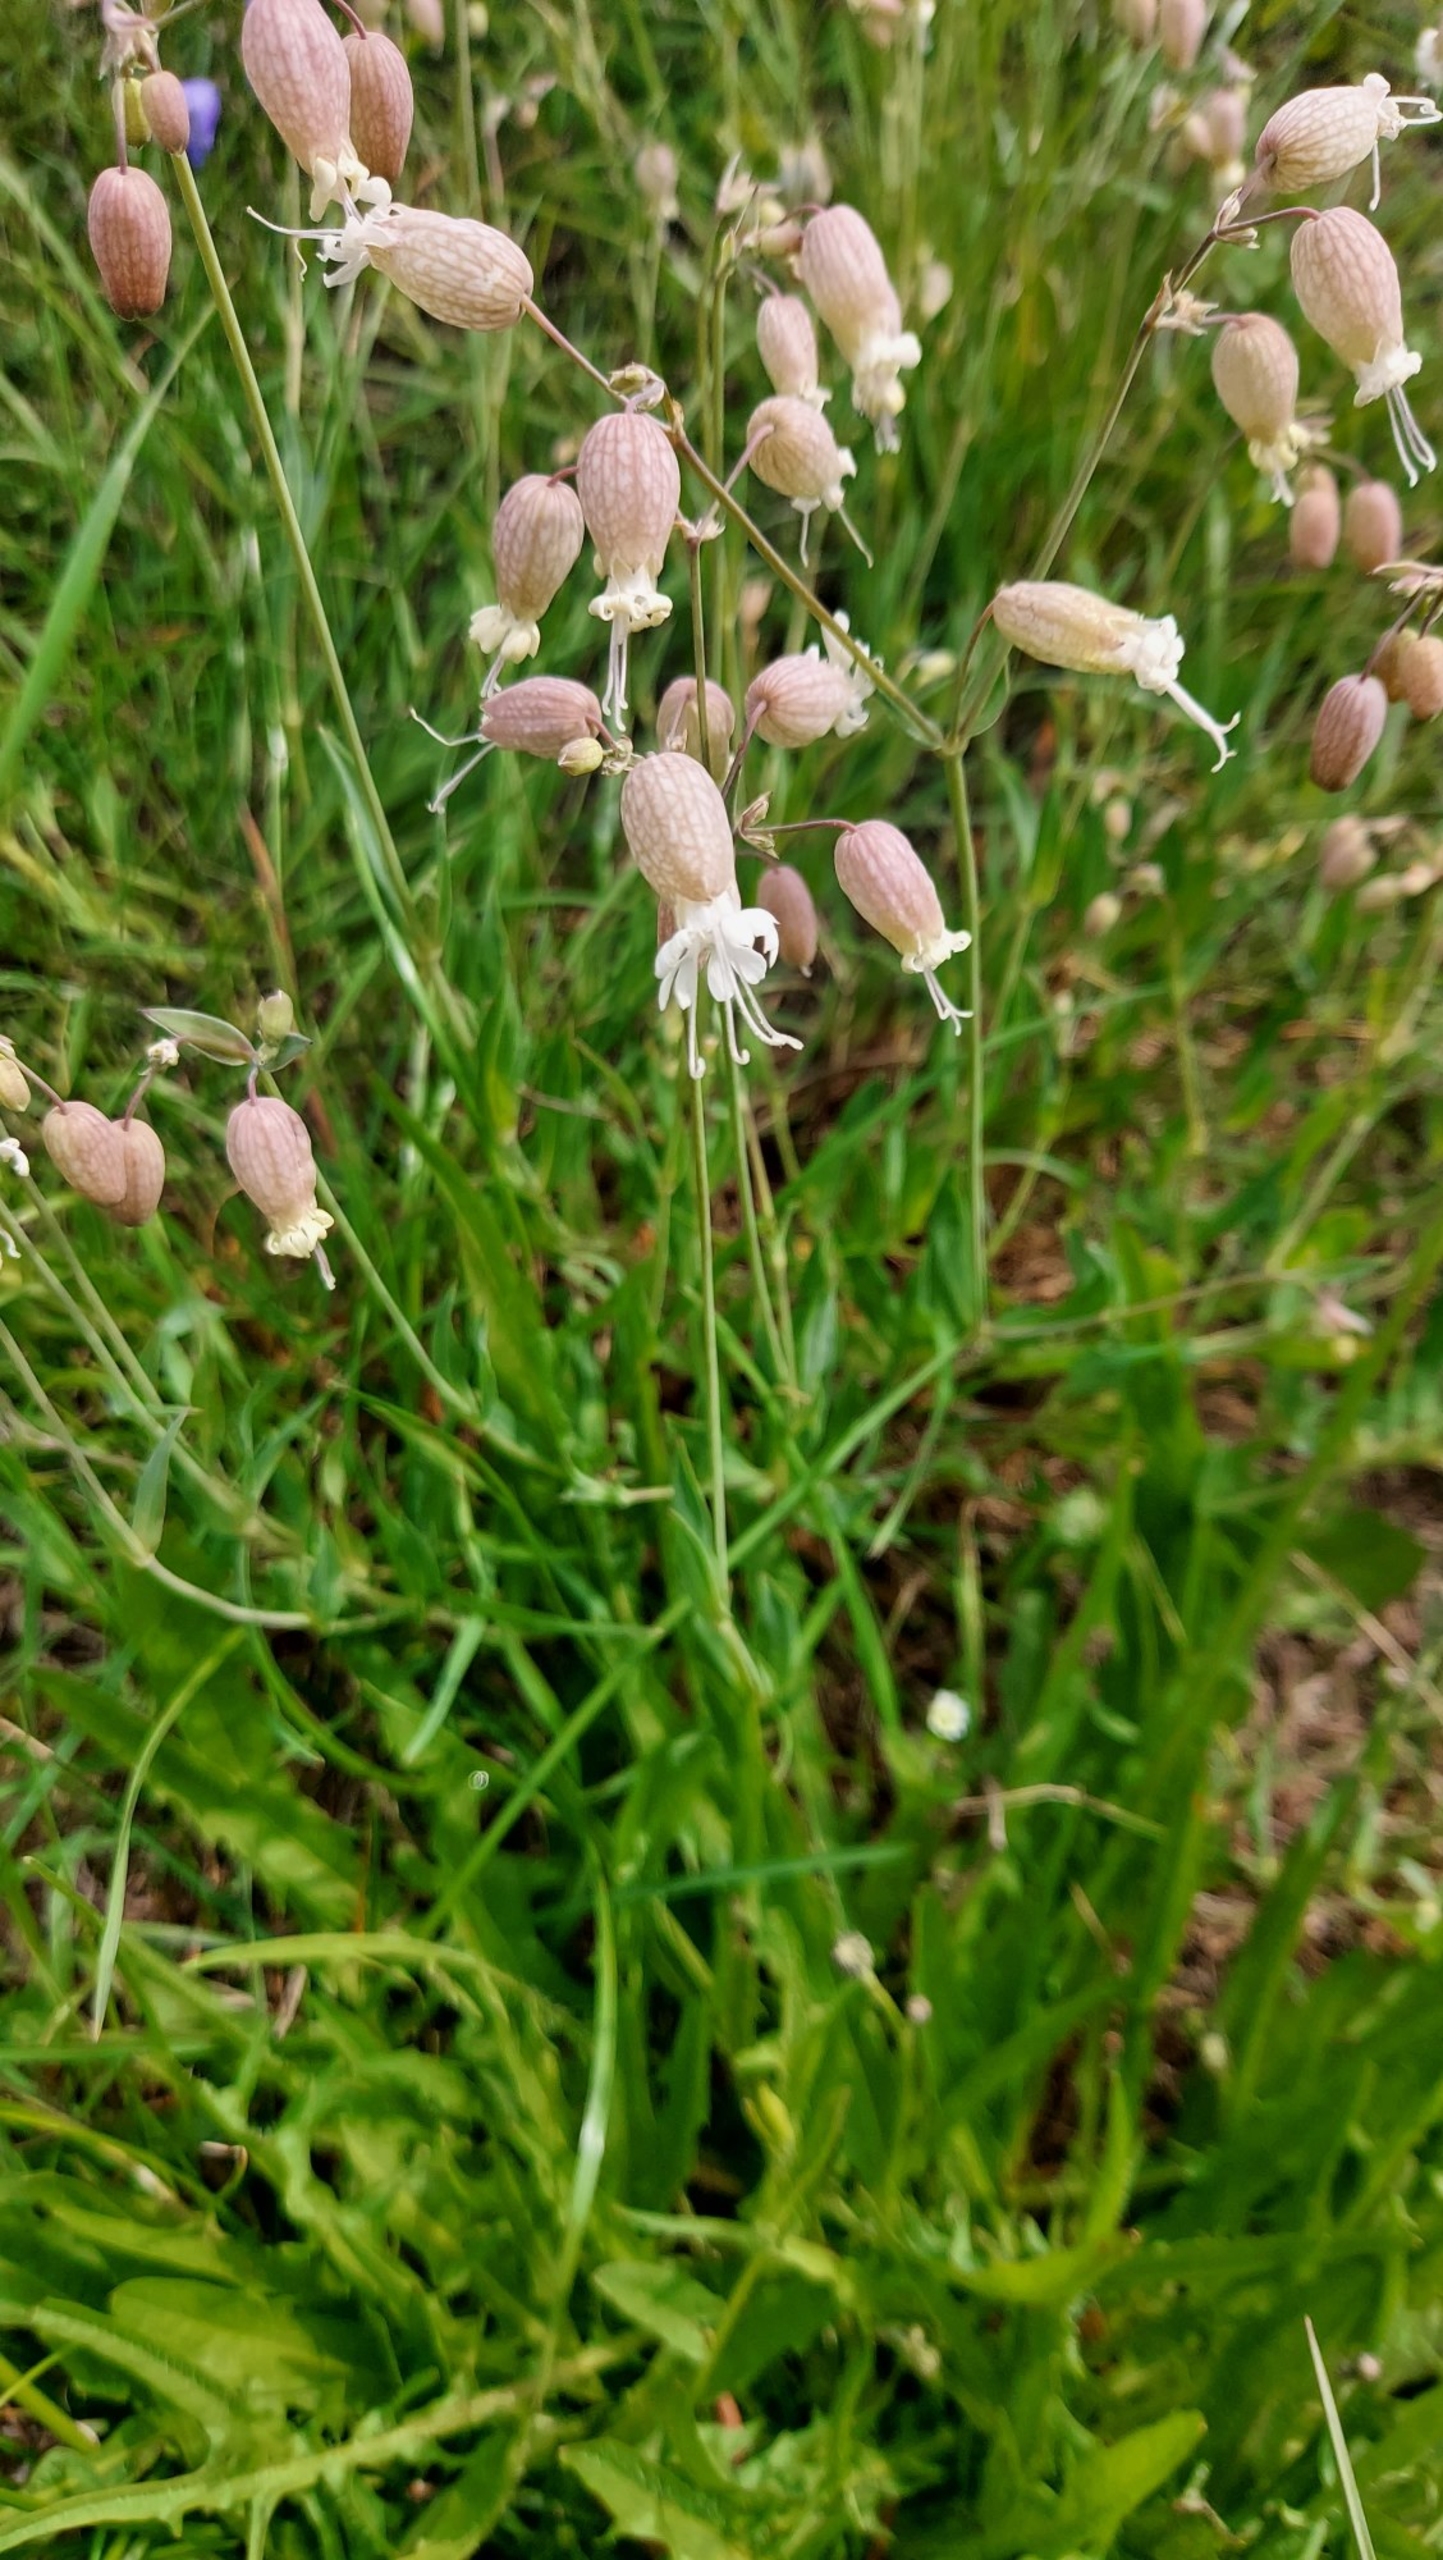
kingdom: Plantae
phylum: Tracheophyta
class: Magnoliopsida
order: Caryophyllales
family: Caryophyllaceae
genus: Silene
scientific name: Silene vulgaris
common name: Blæresmælde
